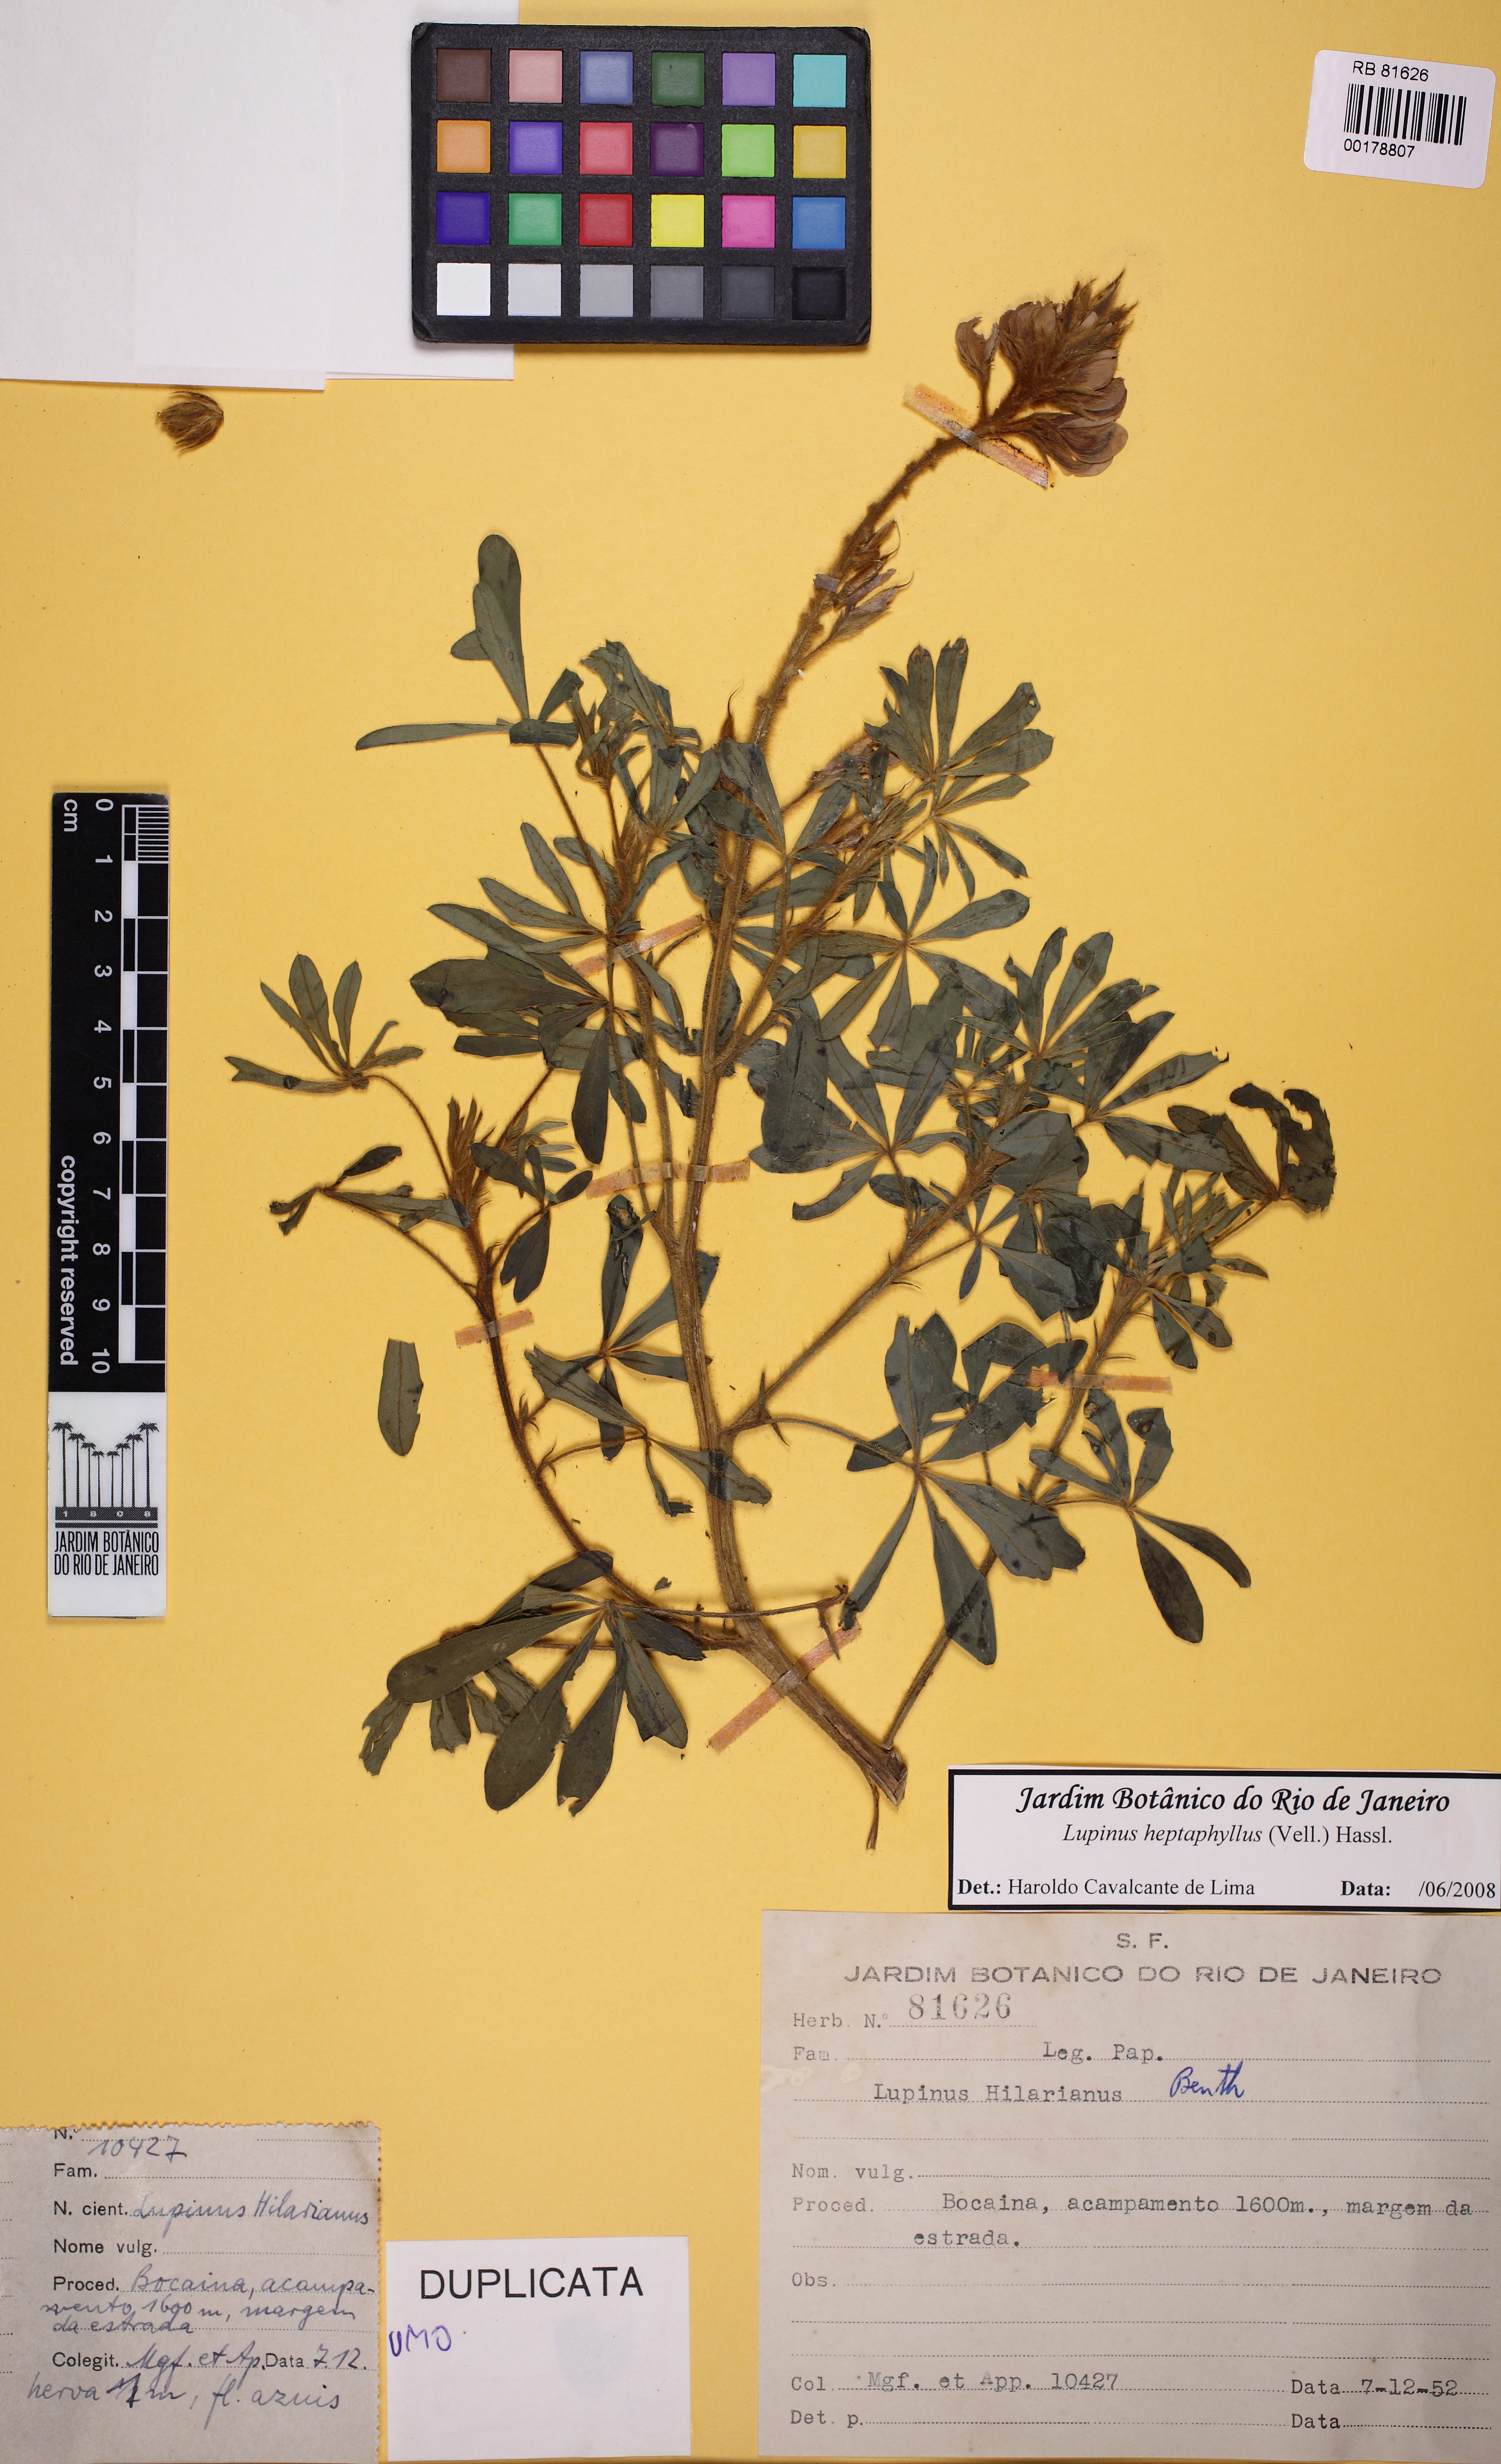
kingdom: Plantae
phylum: Tracheophyta
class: Magnoliopsida
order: Fabales
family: Fabaceae
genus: Lupinus
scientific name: Lupinus heptaphyllus
